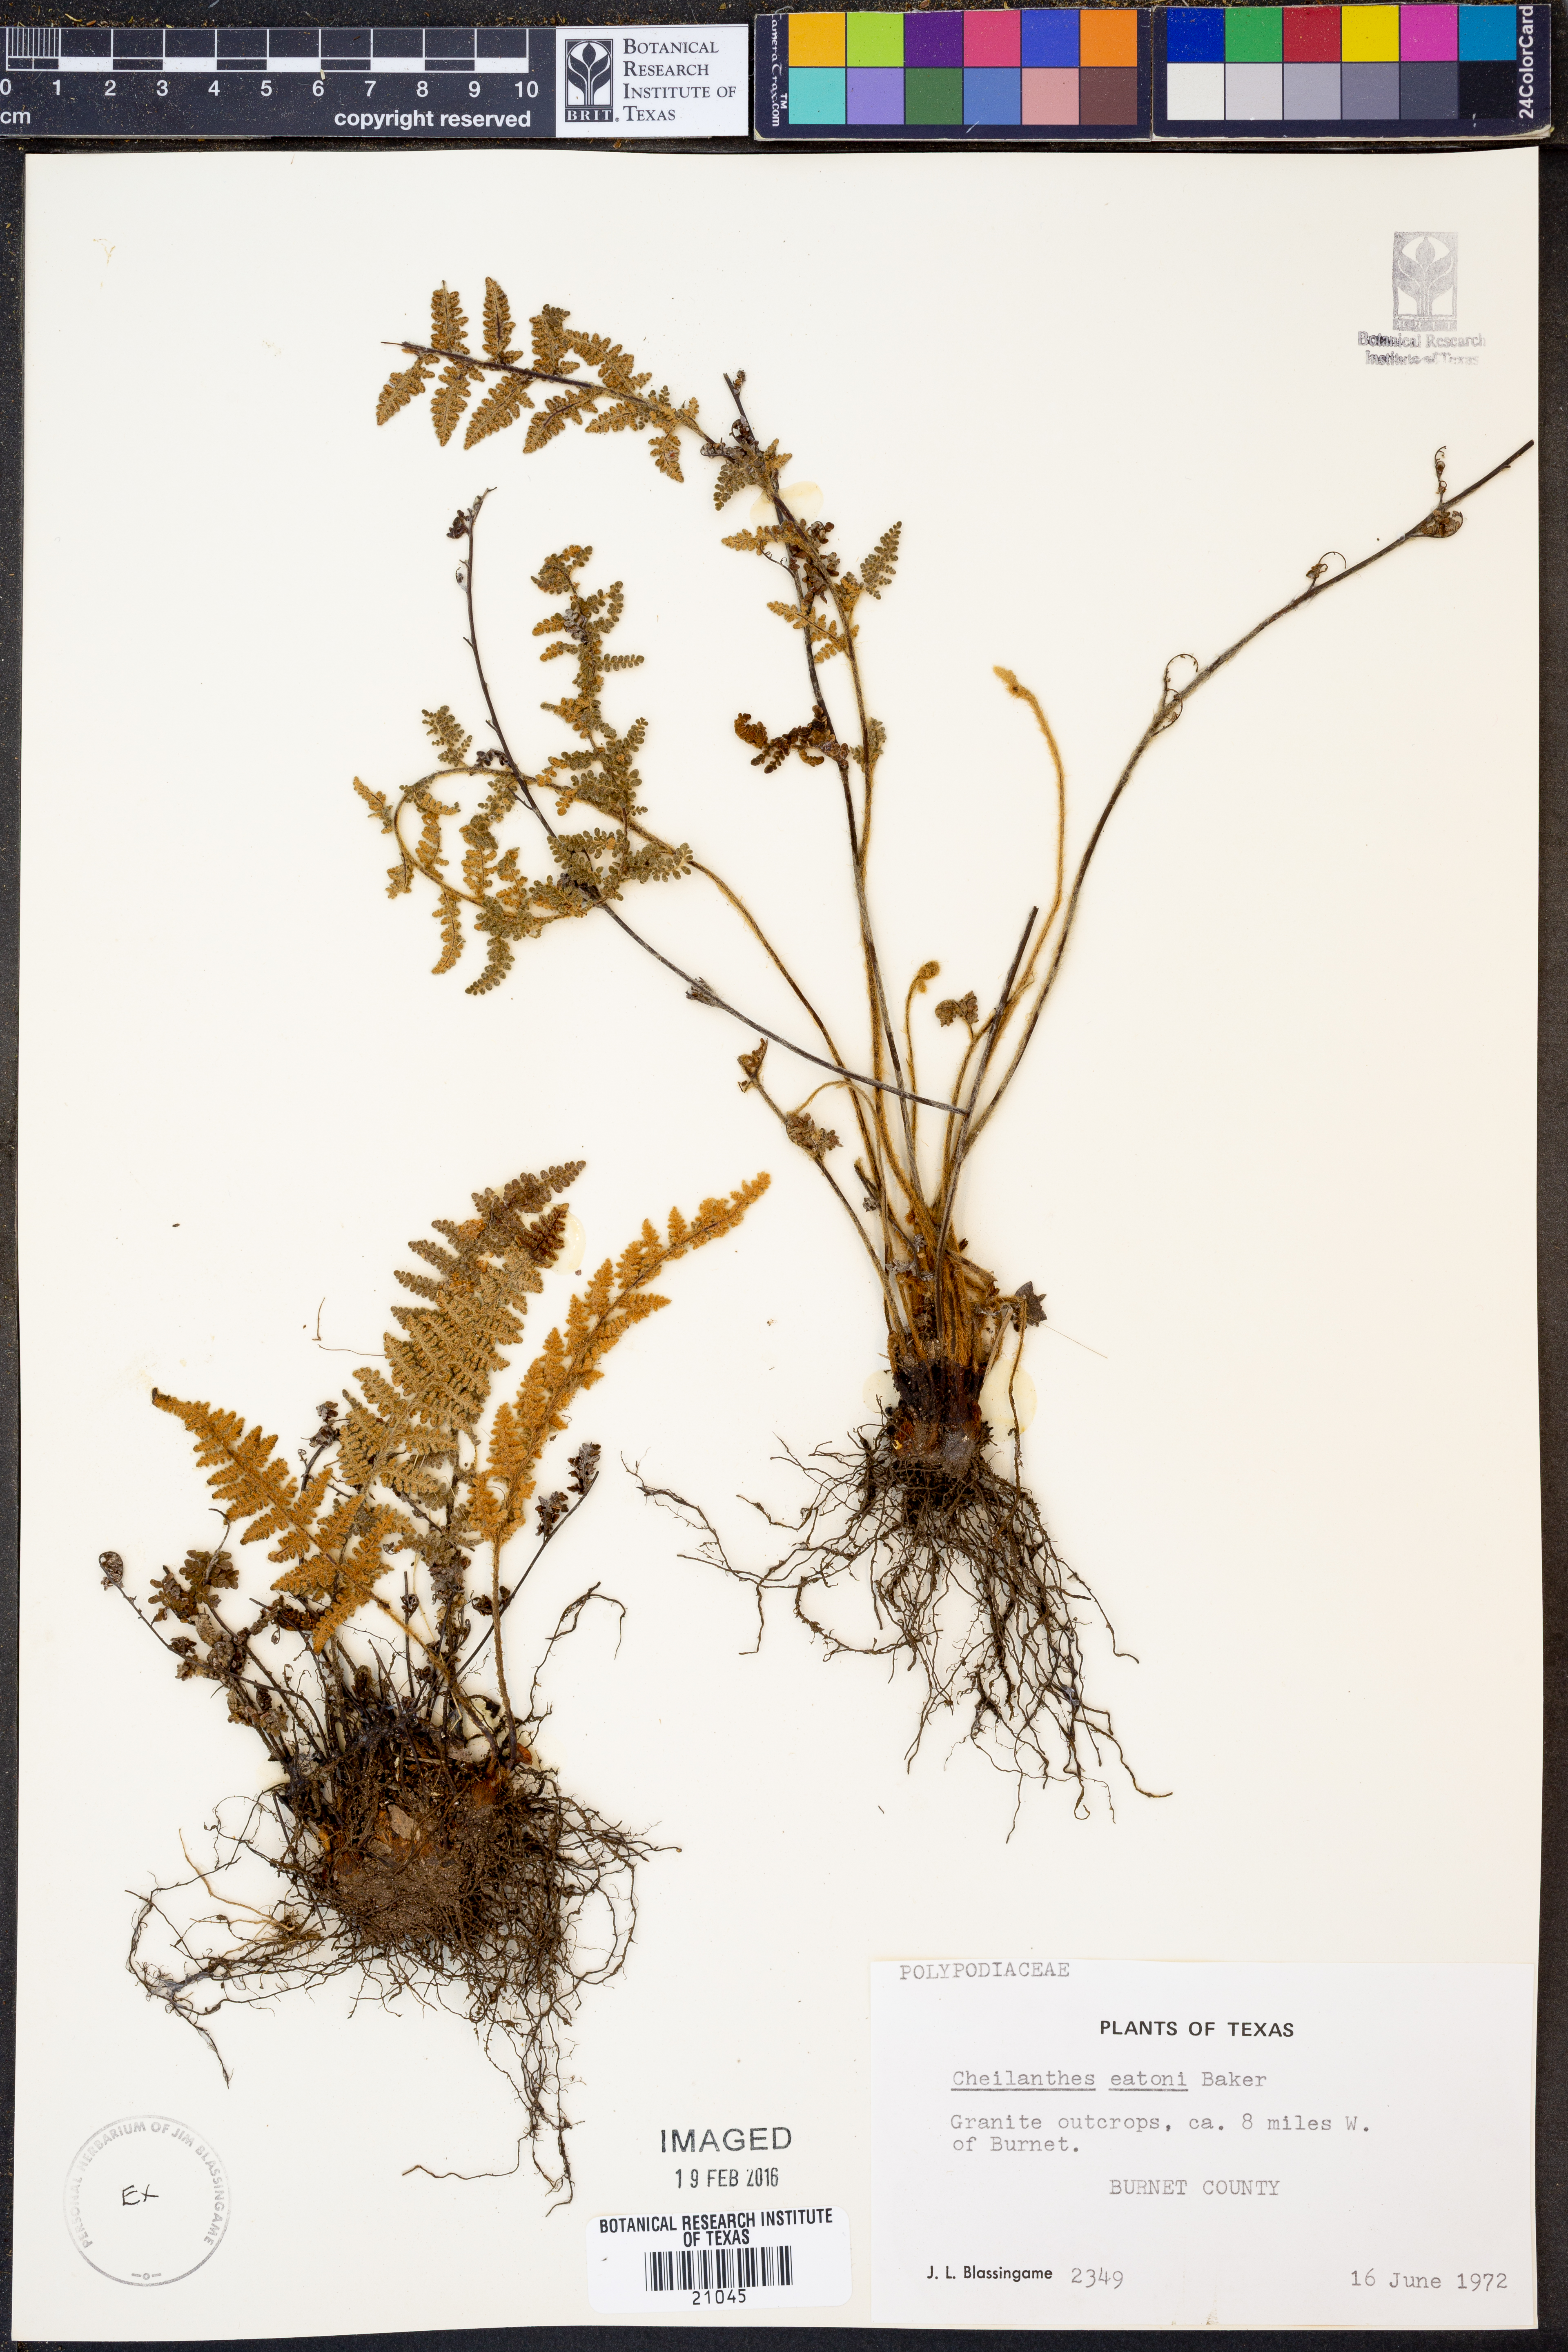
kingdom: Plantae
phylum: Tracheophyta
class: Polypodiopsida
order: Polypodiales
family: Pteridaceae
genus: Myriopteris
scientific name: Myriopteris rufa
